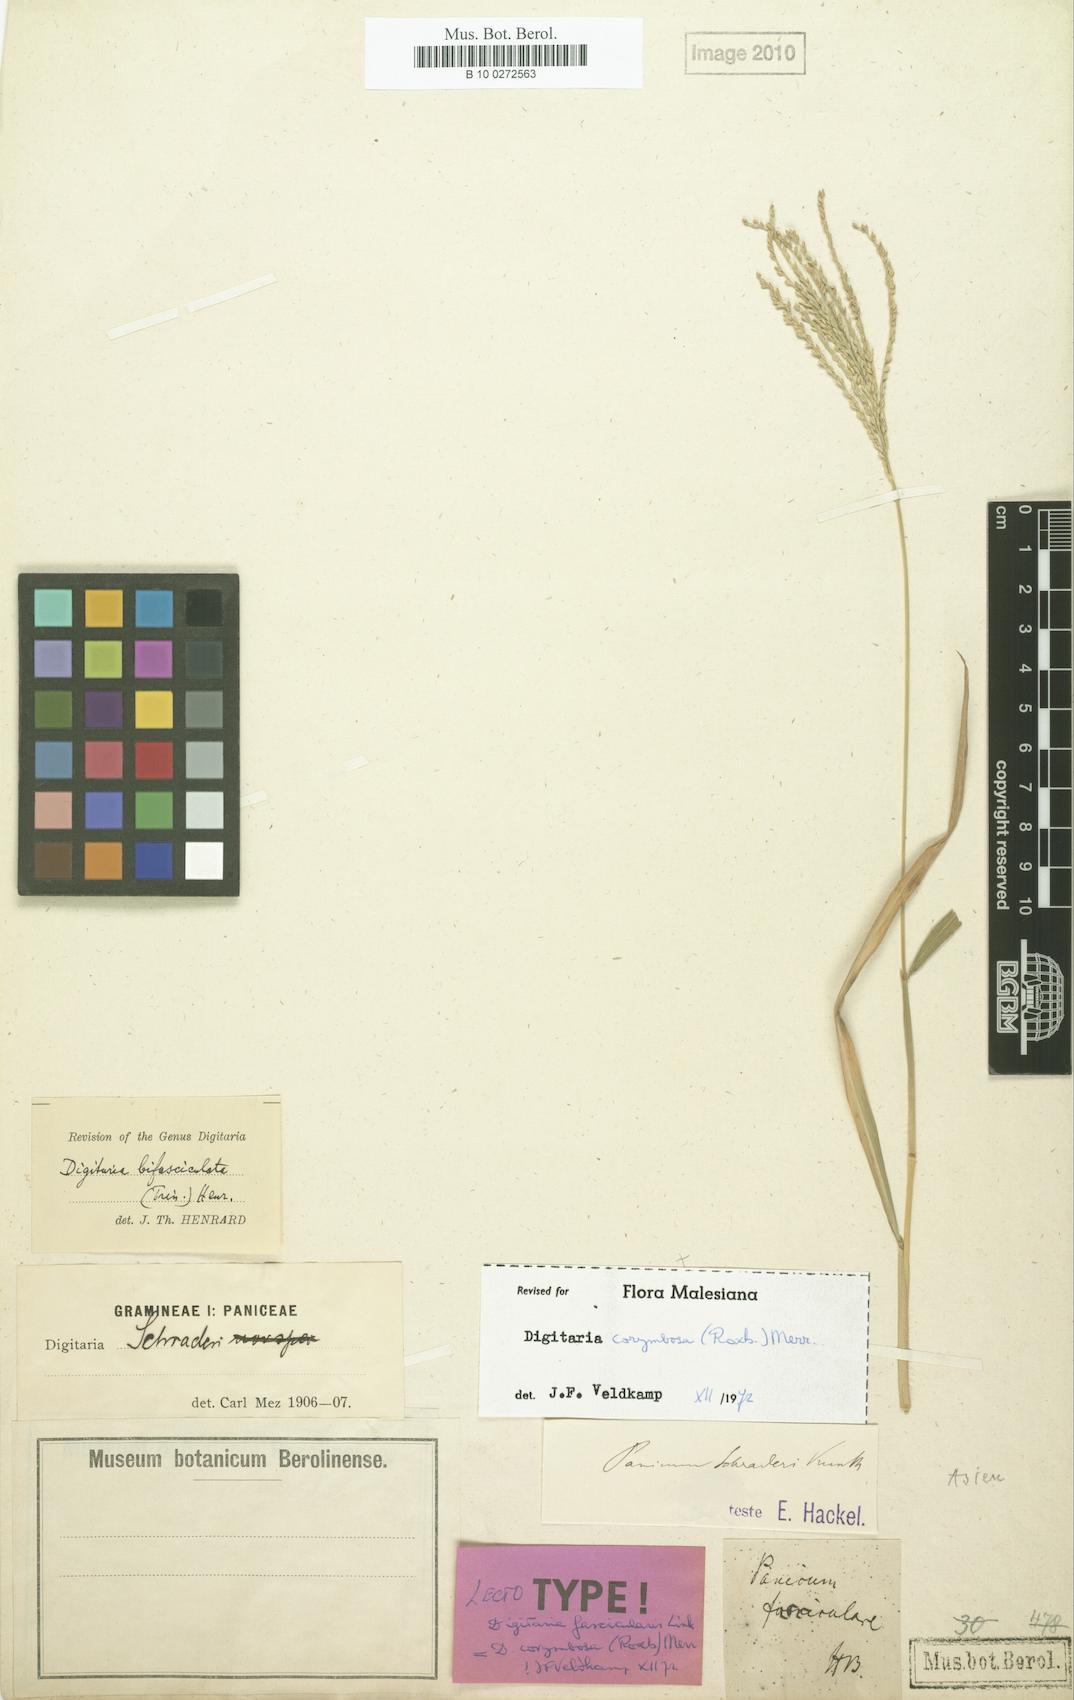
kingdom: Plantae
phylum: Tracheophyta
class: Liliopsida
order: Poales
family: Poaceae
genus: Digitaria
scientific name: Digitaria compacta
